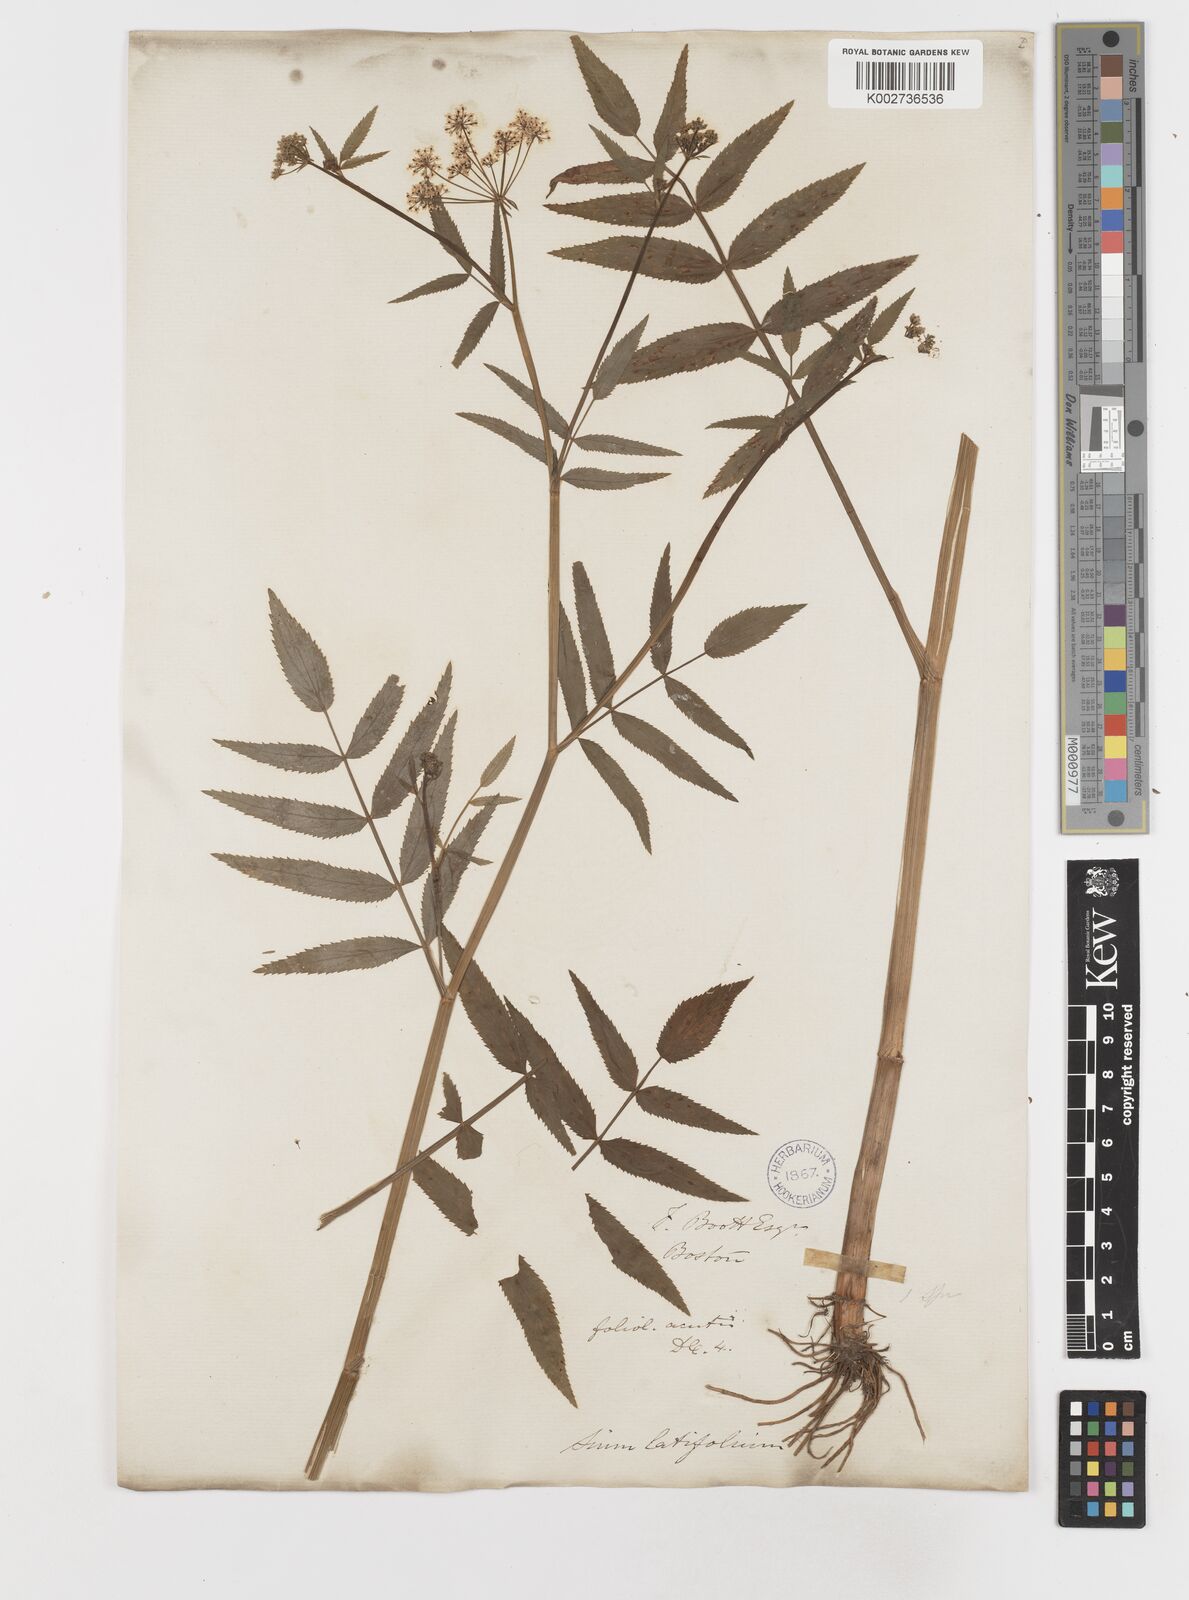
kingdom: Plantae
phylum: Tracheophyta
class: Magnoliopsida
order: Apiales
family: Apiaceae
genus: Sium
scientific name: Sium suave
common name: Hemlock water-parsnip
